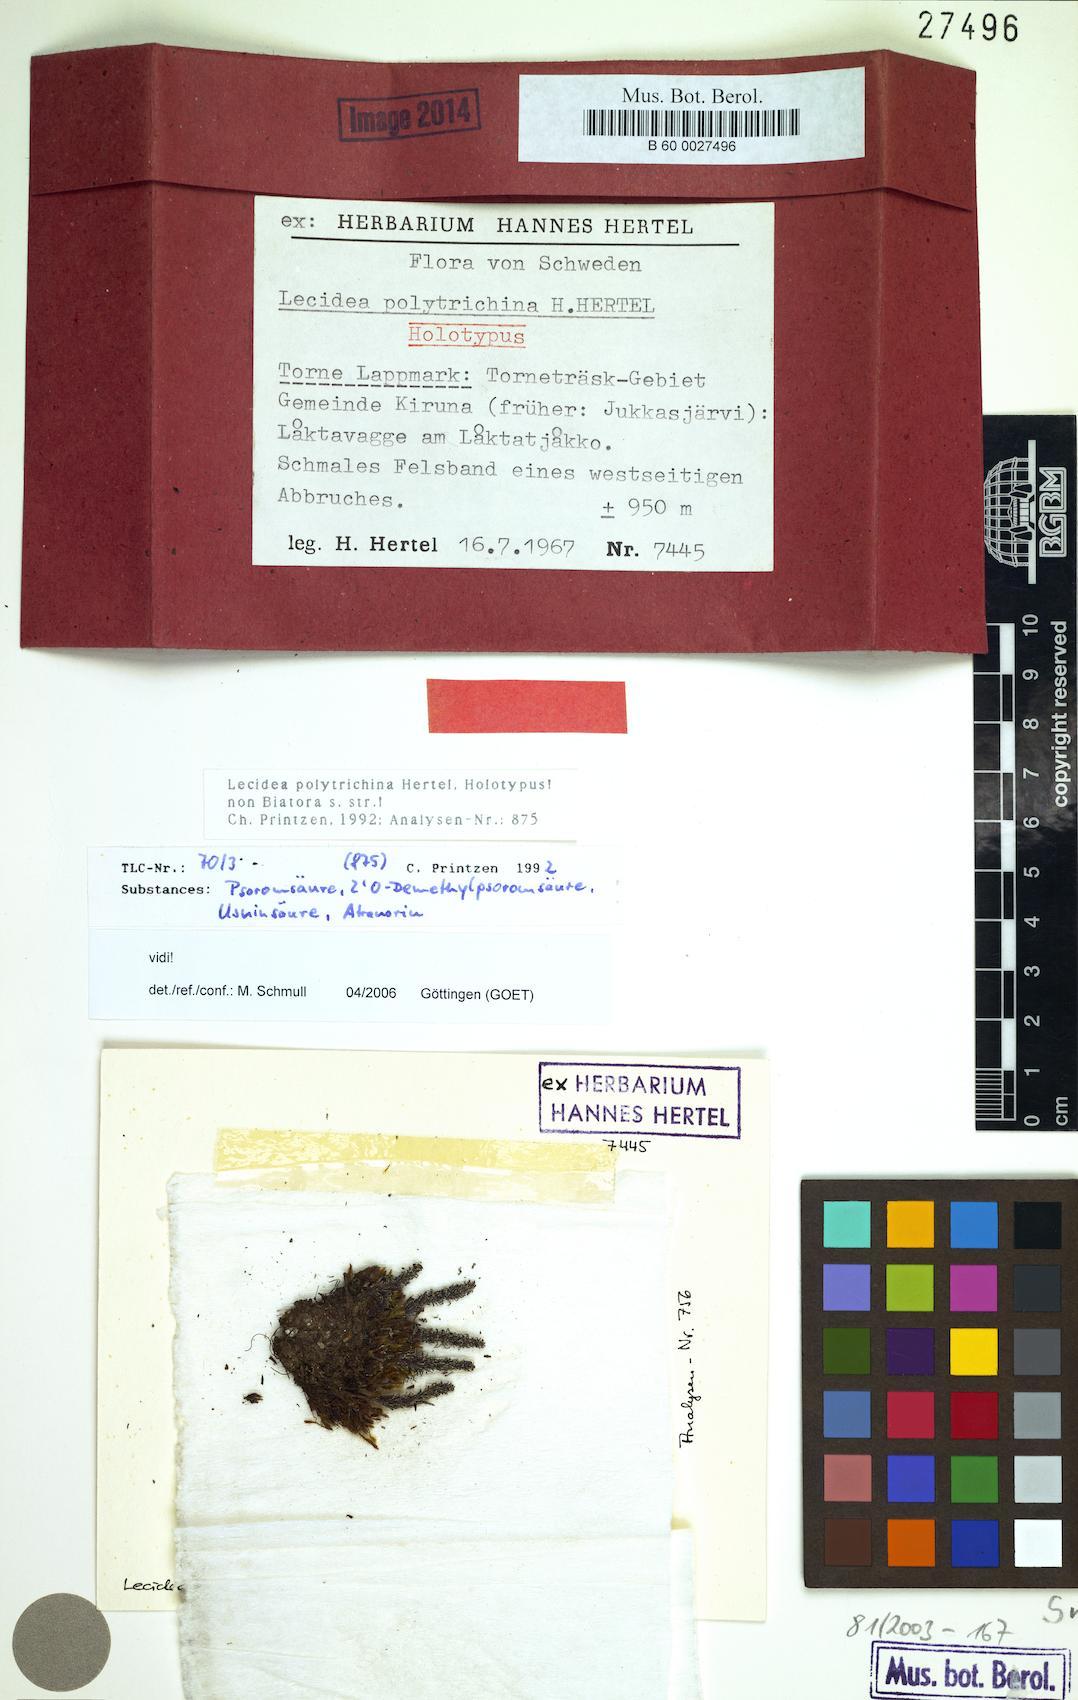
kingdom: Fungi
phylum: Ascomycota
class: Lecanoromycetes
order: Lecideales
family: Lecideaceae
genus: Lecidea
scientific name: Lecidea polytrichina
